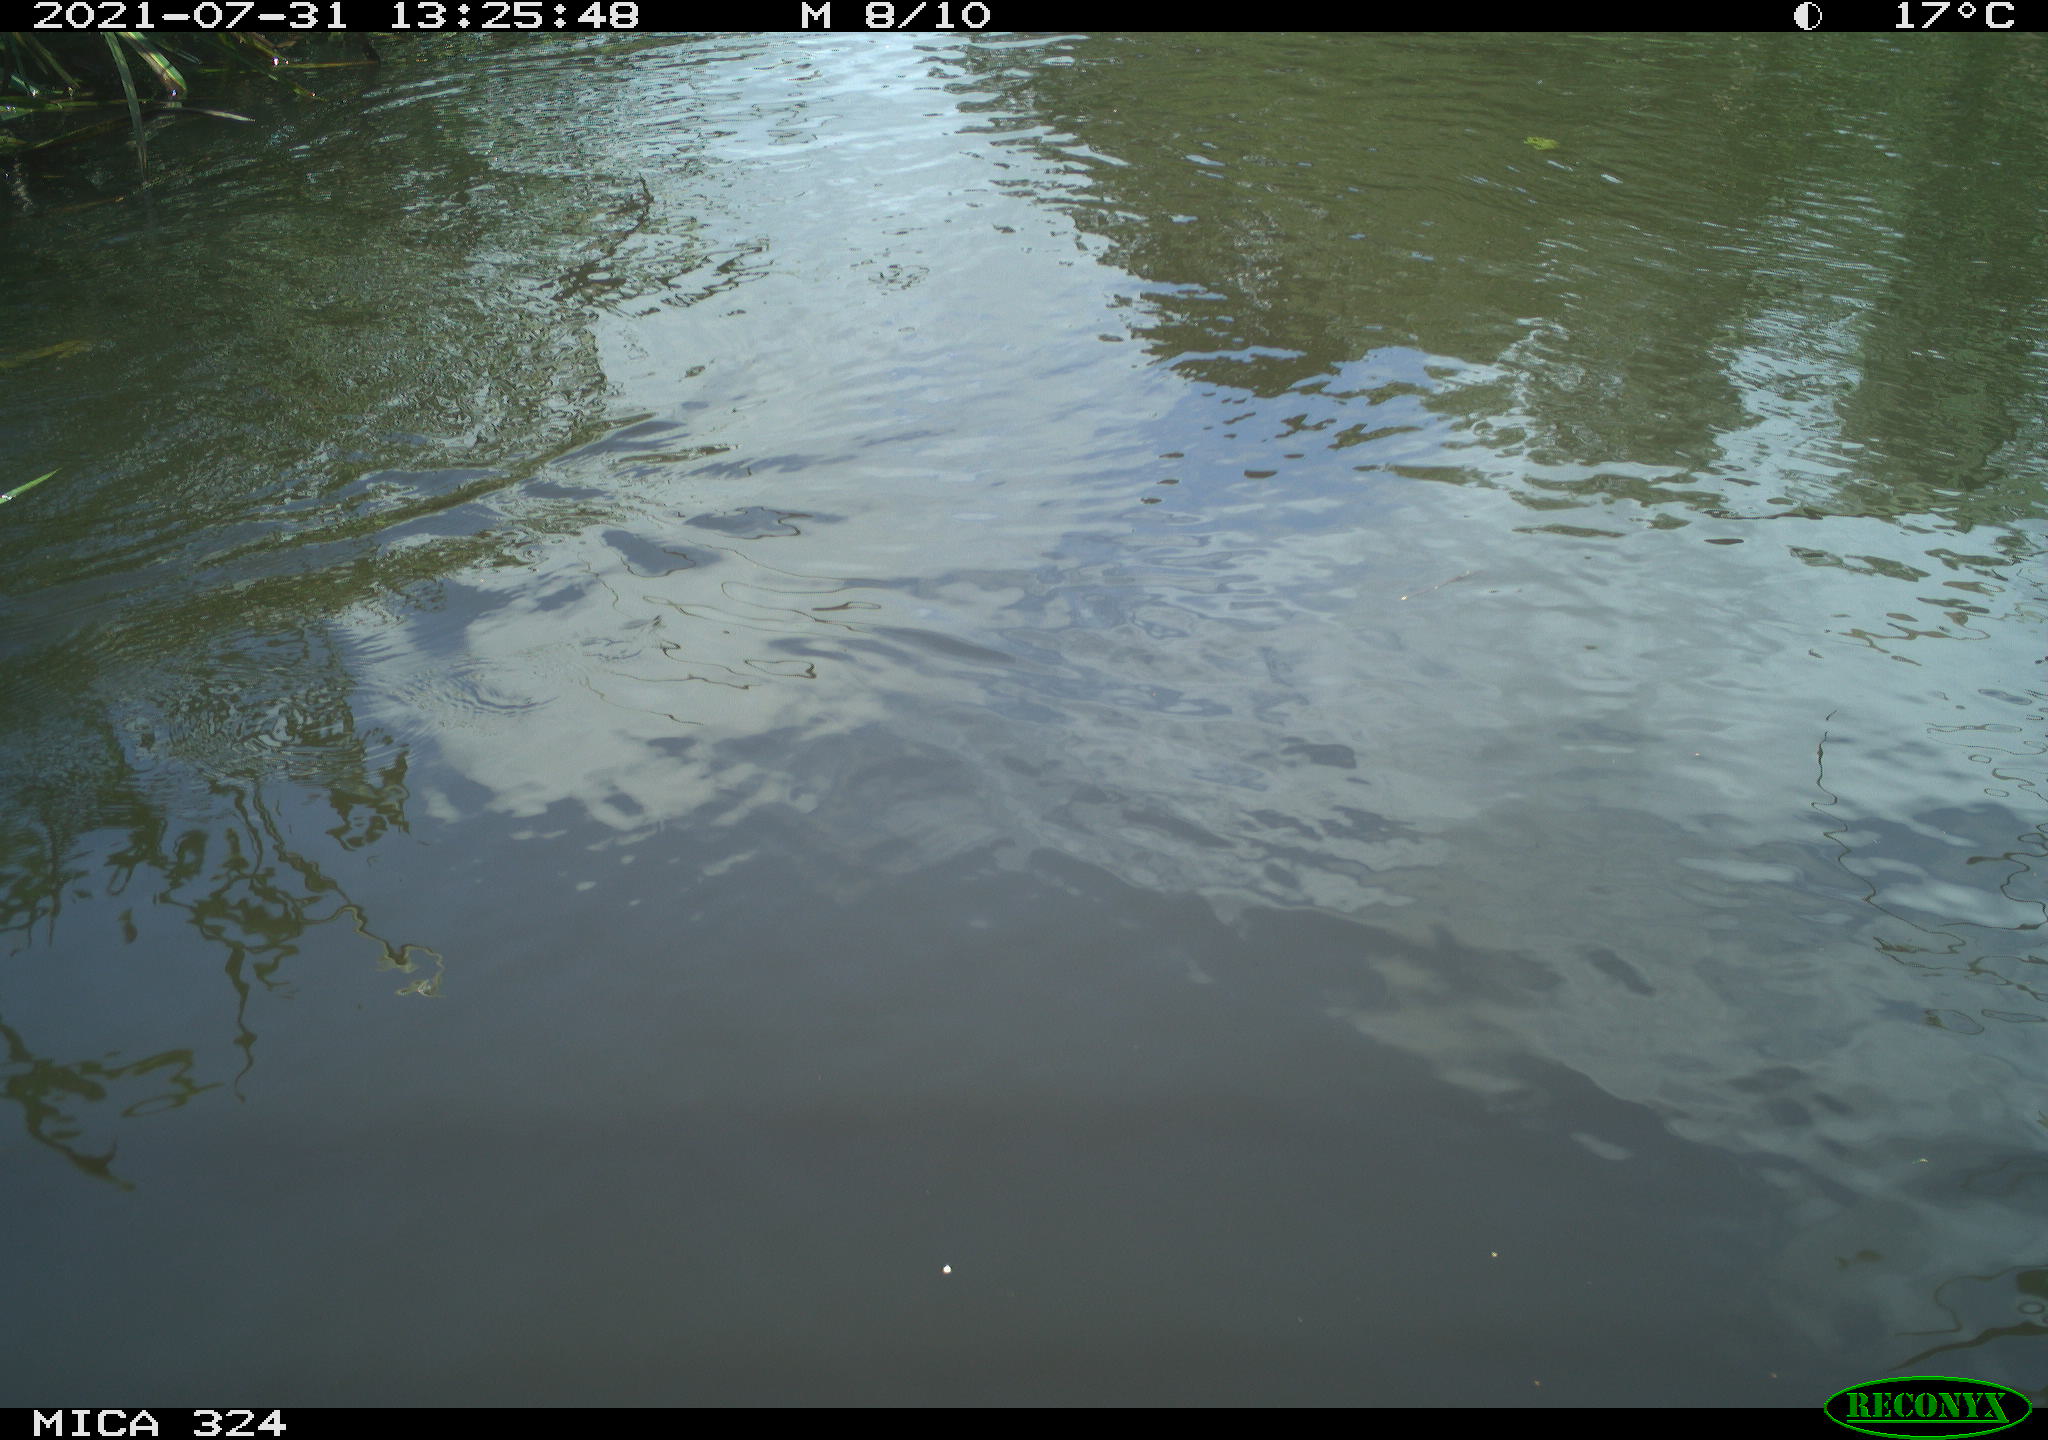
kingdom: Animalia
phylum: Chordata
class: Aves
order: Gruiformes
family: Rallidae
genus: Gallinula
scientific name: Gallinula chloropus
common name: Common moorhen
